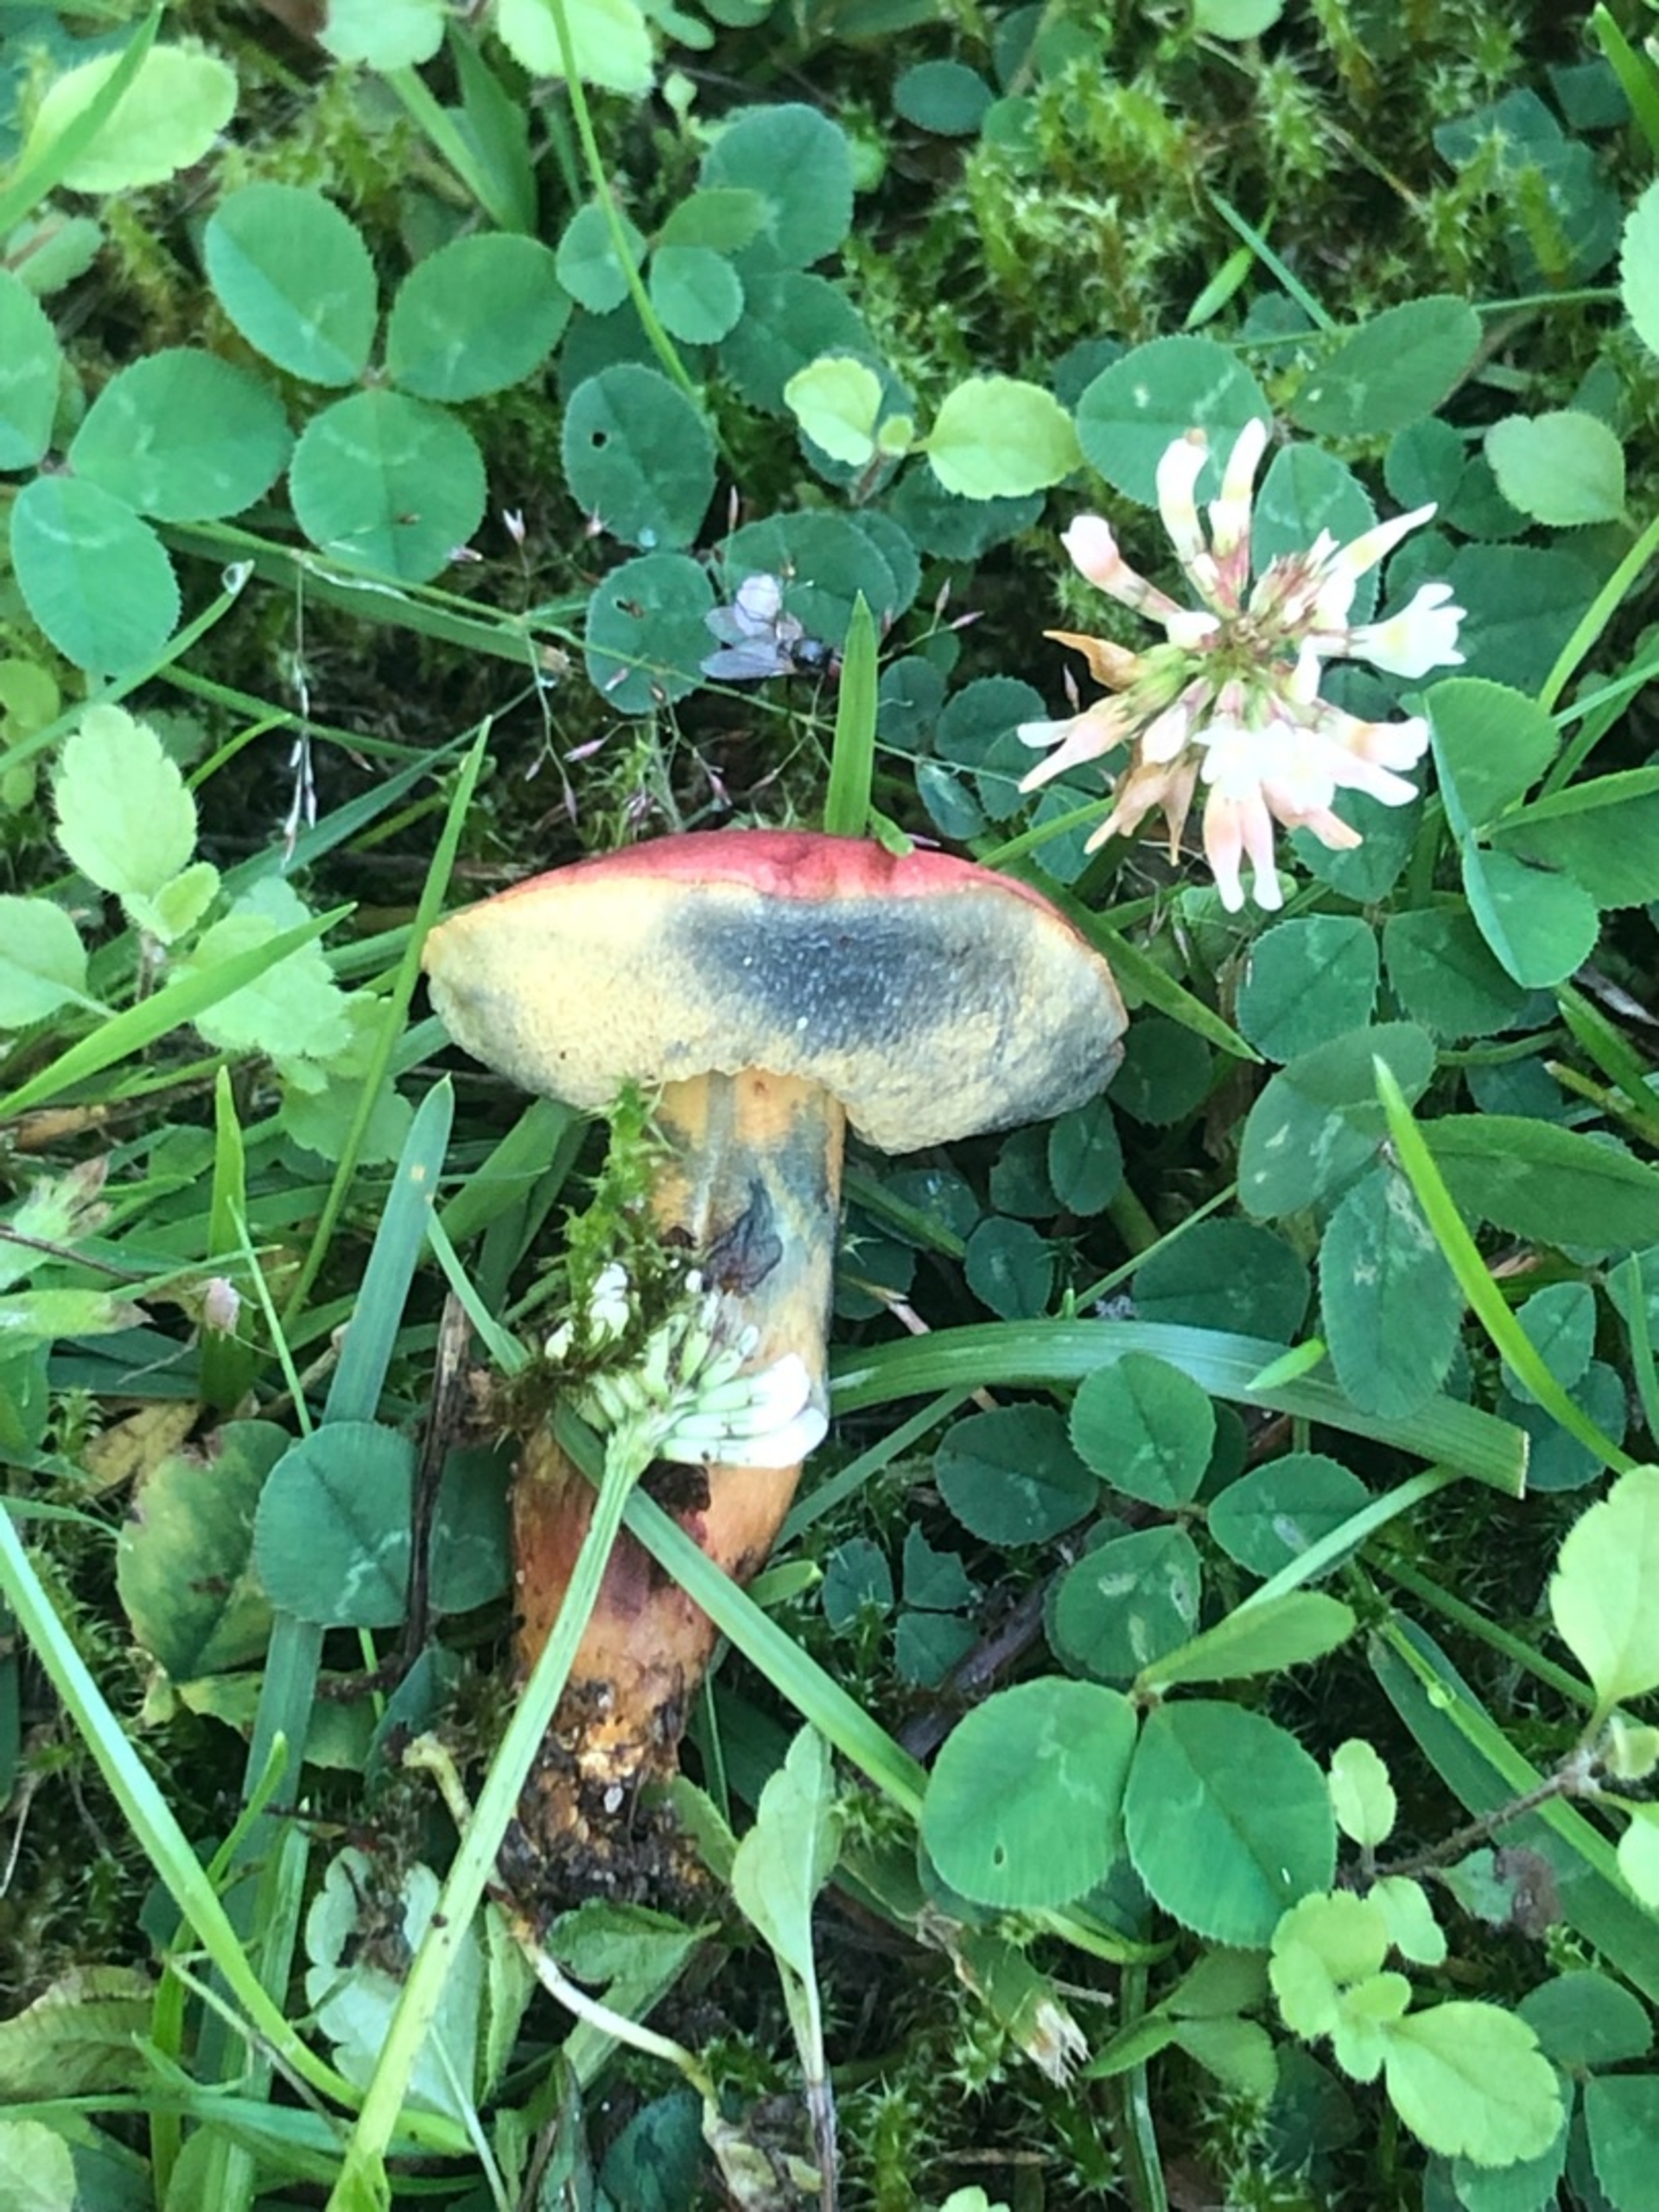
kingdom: Fungi
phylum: Basidiomycota
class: Agaricomycetes
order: Boletales
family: Boletaceae
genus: Hortiboletus
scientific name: Hortiboletus rubellus
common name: Blodrød rørhat
